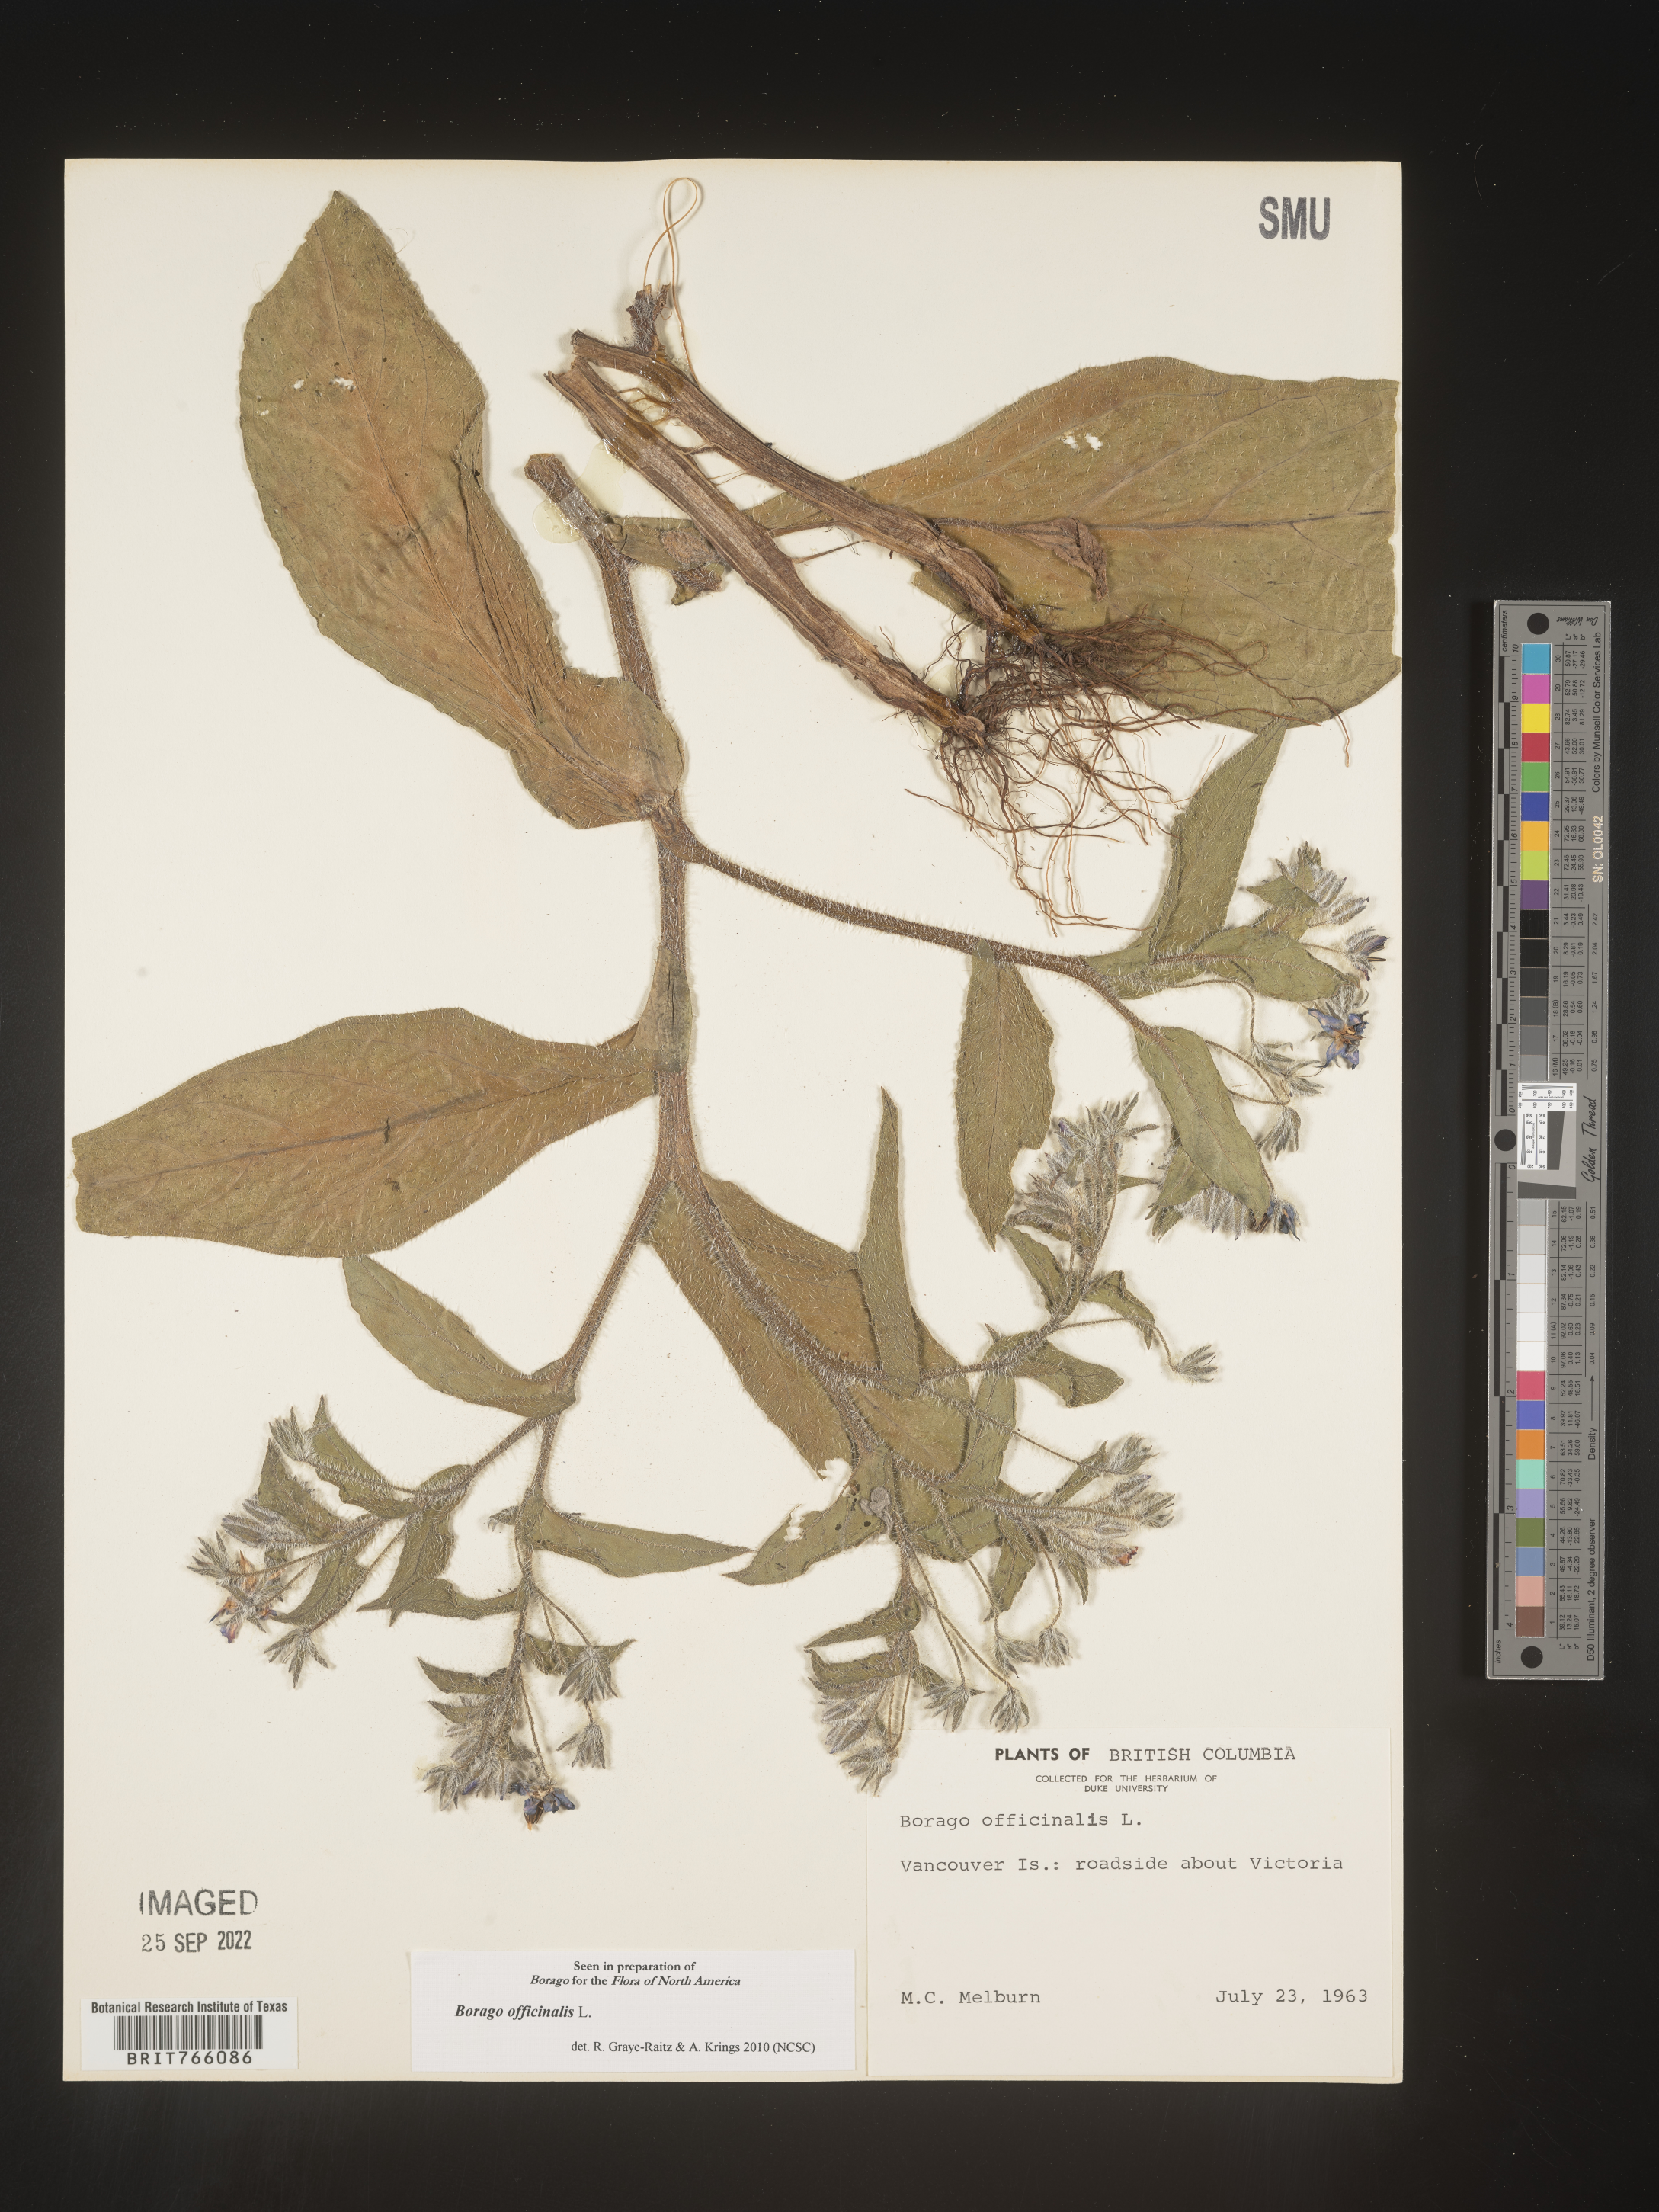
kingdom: Plantae
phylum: Tracheophyta
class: Magnoliopsida
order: Boraginales
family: Boraginaceae
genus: Borago
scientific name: Borago
